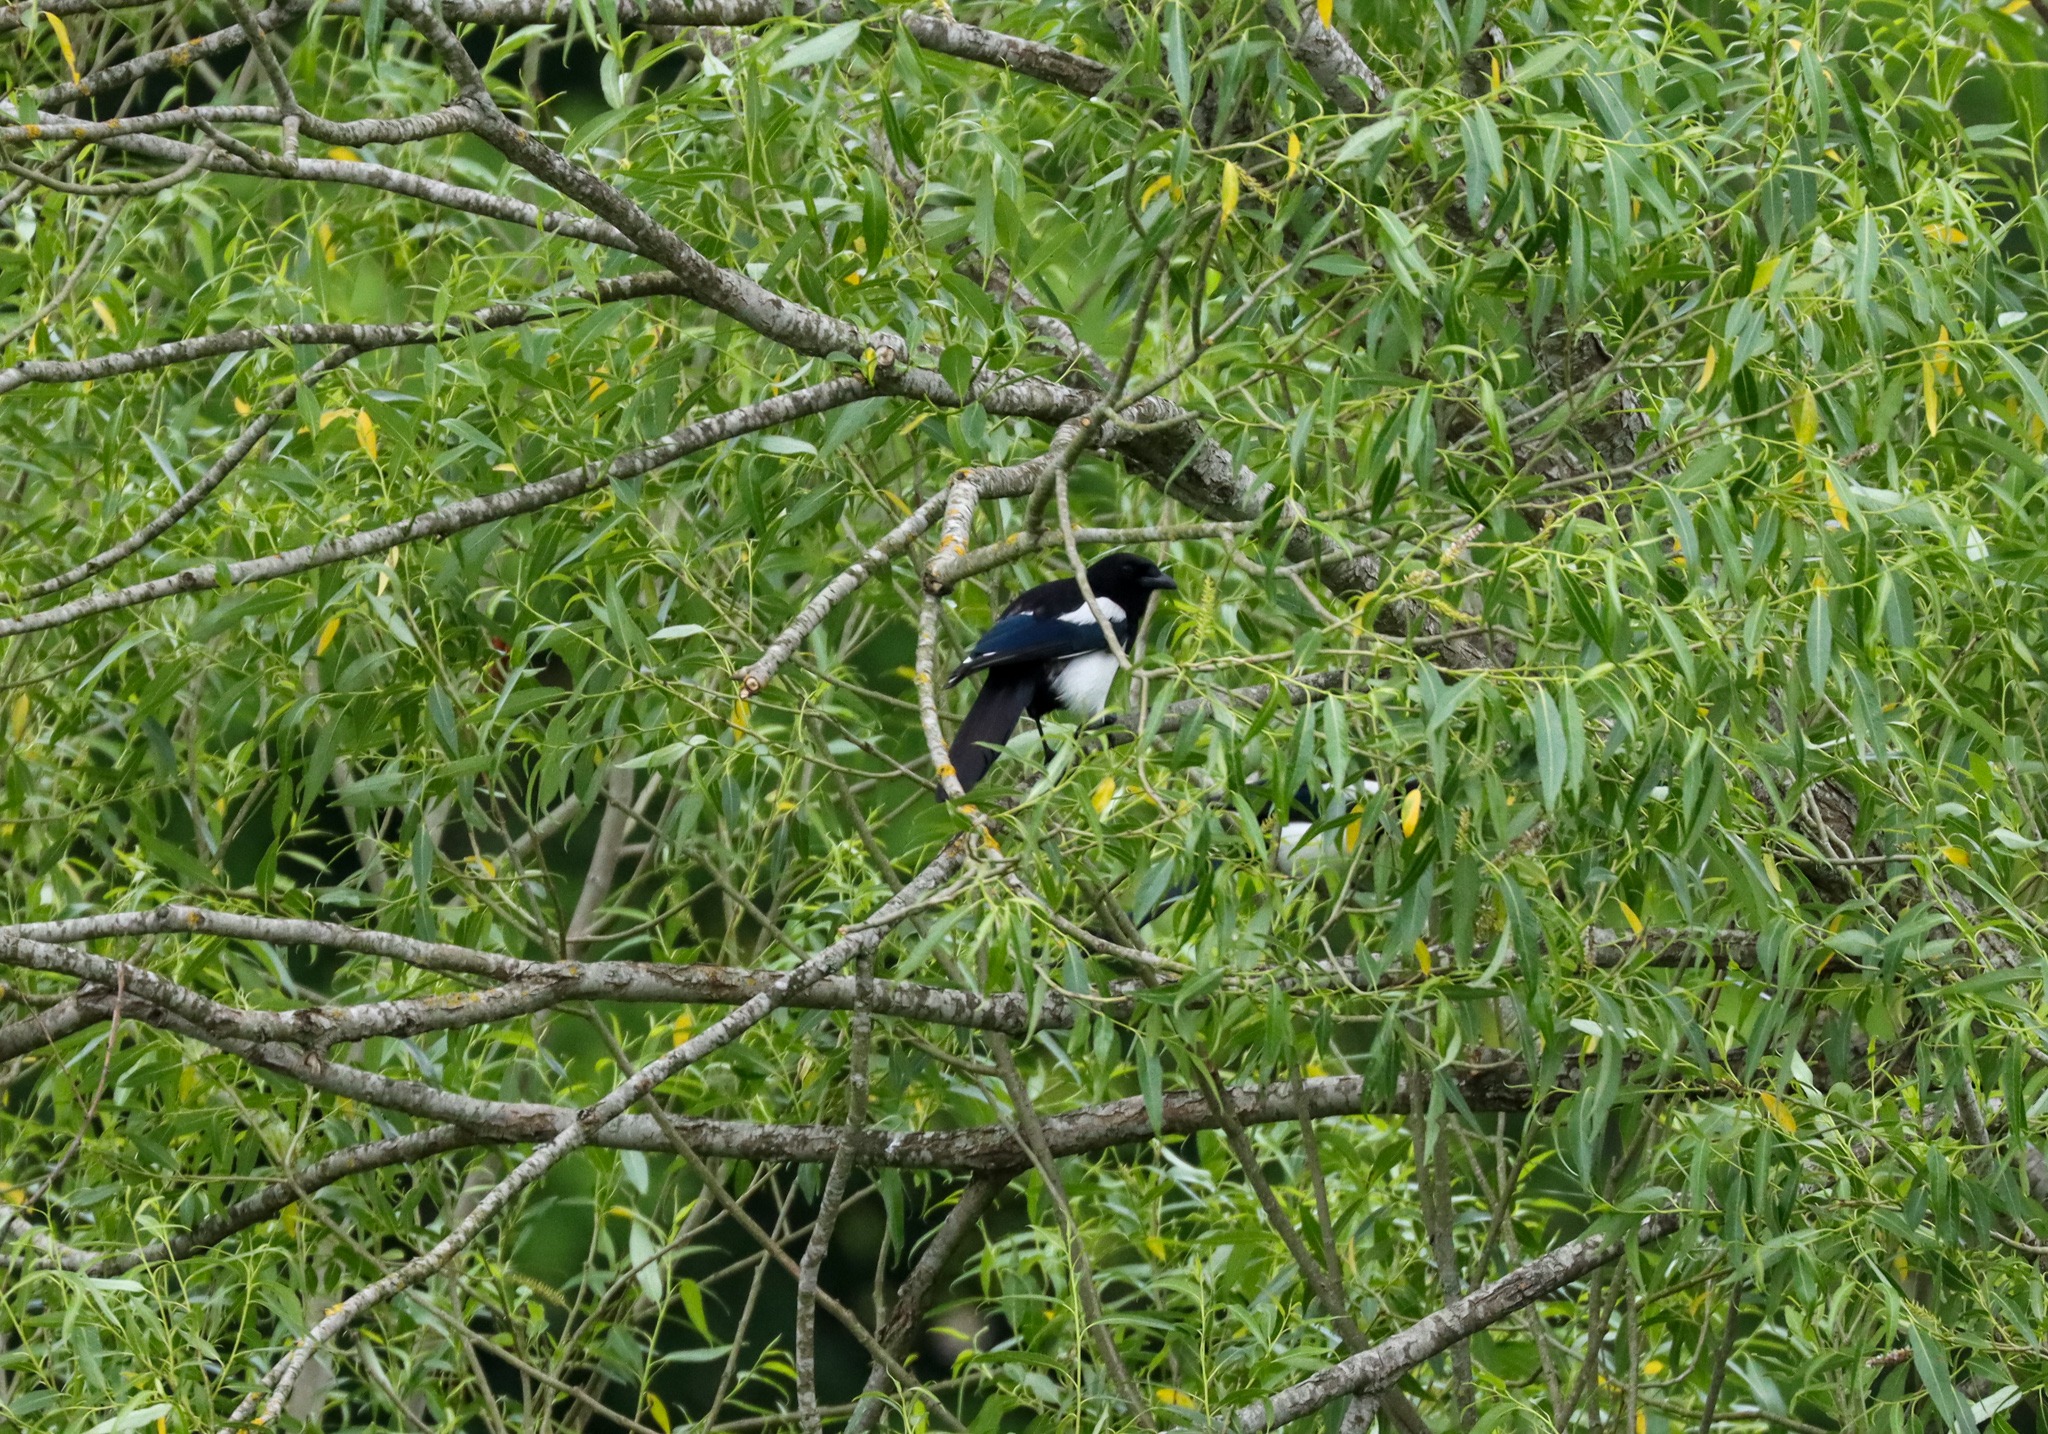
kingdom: Animalia
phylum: Chordata
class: Aves
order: Passeriformes
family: Corvidae
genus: Pica
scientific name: Pica pica
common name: Husskade
